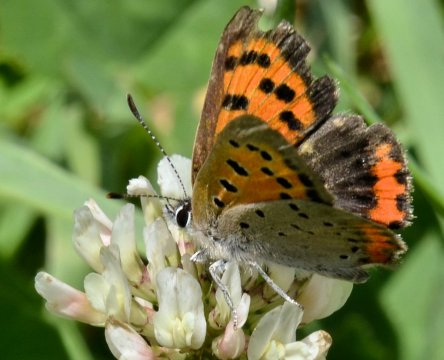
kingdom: Animalia
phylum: Arthropoda
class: Insecta
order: Lepidoptera
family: Lycaenidae
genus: Lycaena
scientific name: Lycaena phlaeas
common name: American Copper
